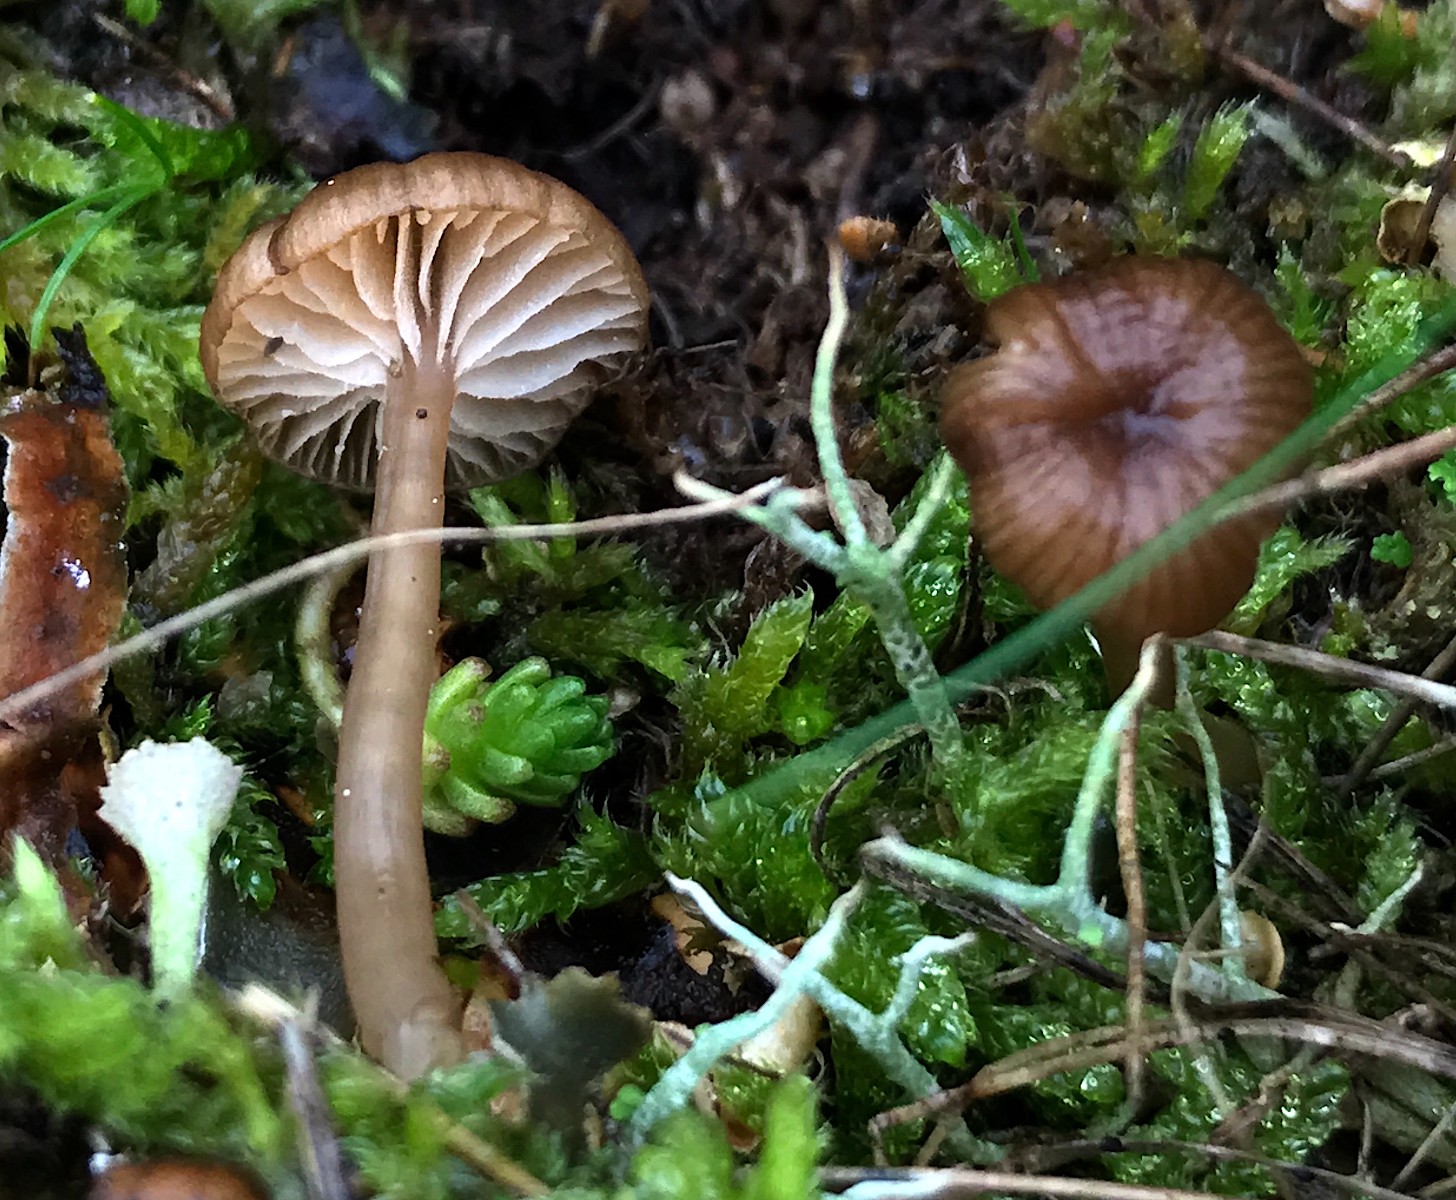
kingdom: Fungi
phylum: Basidiomycota
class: Agaricomycetes
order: Agaricales
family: Tricholomataceae
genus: Gamundia
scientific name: Gamundia xerophila
